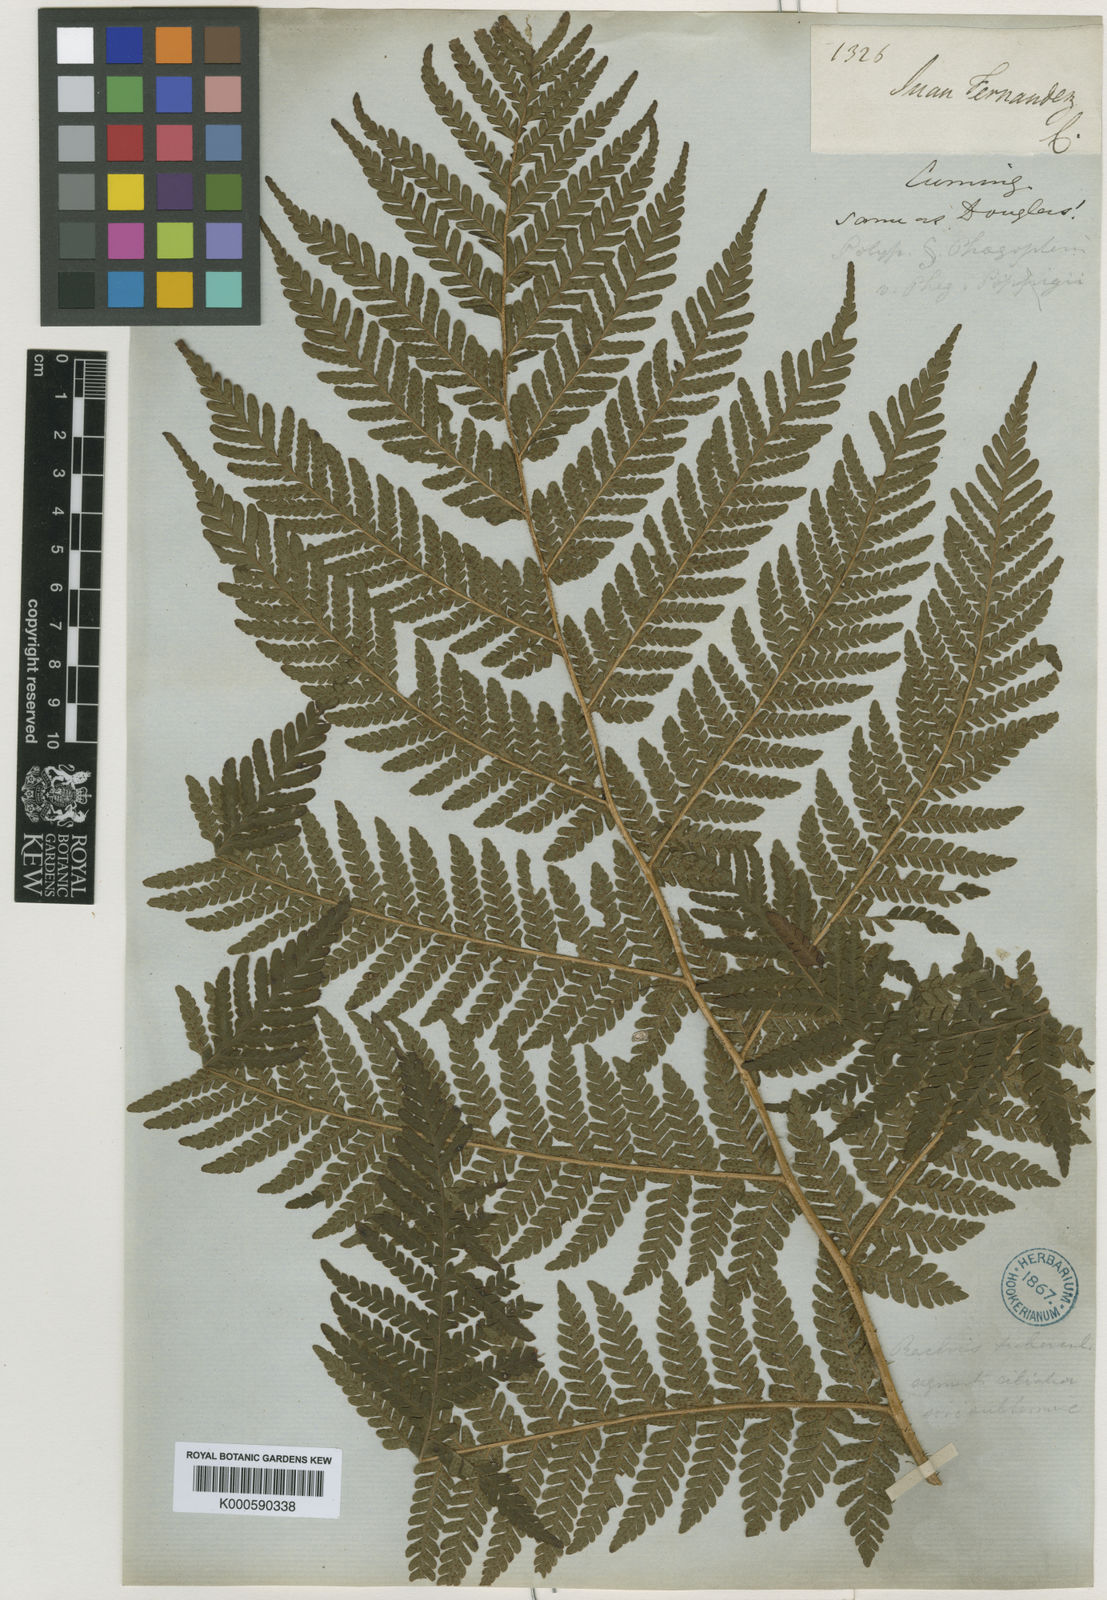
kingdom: Plantae
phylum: Tracheophyta
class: Polypodiopsida
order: Polypodiales
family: Dryopteridaceae
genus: Megalastrum
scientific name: Megalastrum inaequalifolium
